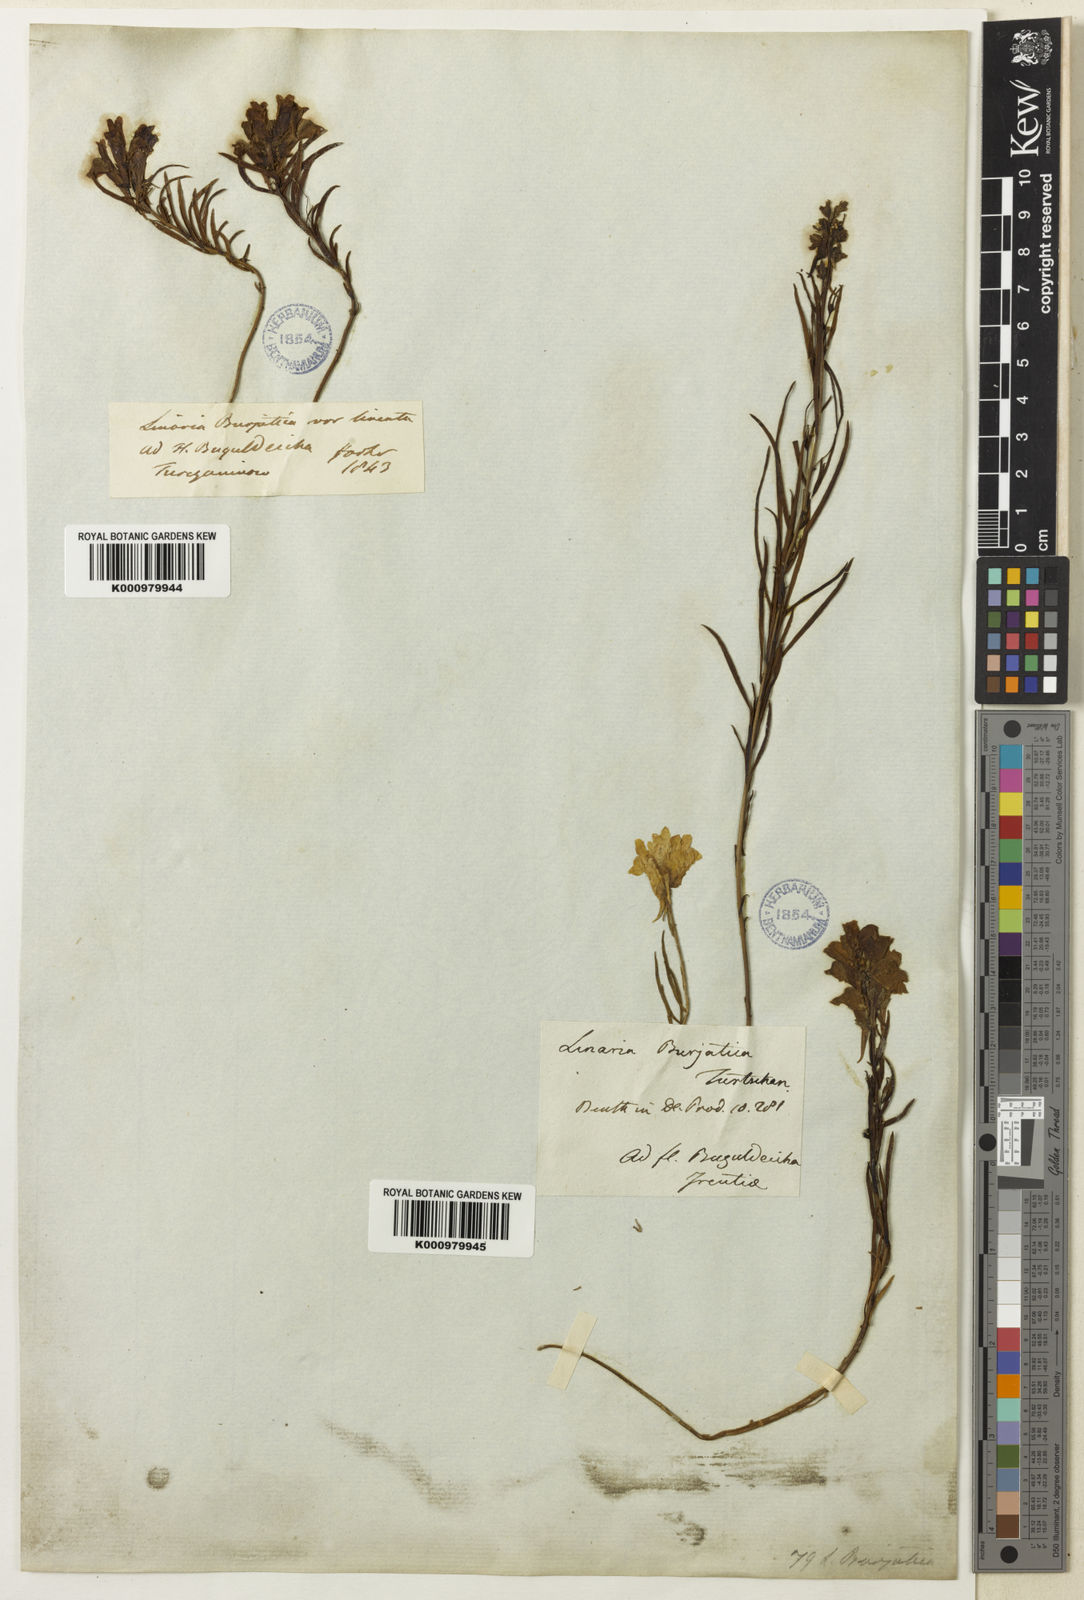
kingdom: Plantae
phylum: Tracheophyta
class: Magnoliopsida
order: Lamiales
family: Plantaginaceae
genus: Linaria
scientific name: Linaria
